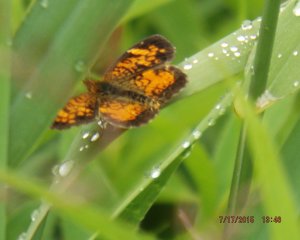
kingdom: Animalia
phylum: Arthropoda
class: Insecta
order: Lepidoptera
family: Nymphalidae
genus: Phyciodes
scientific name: Phyciodes tharos
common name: Northern Crescent
